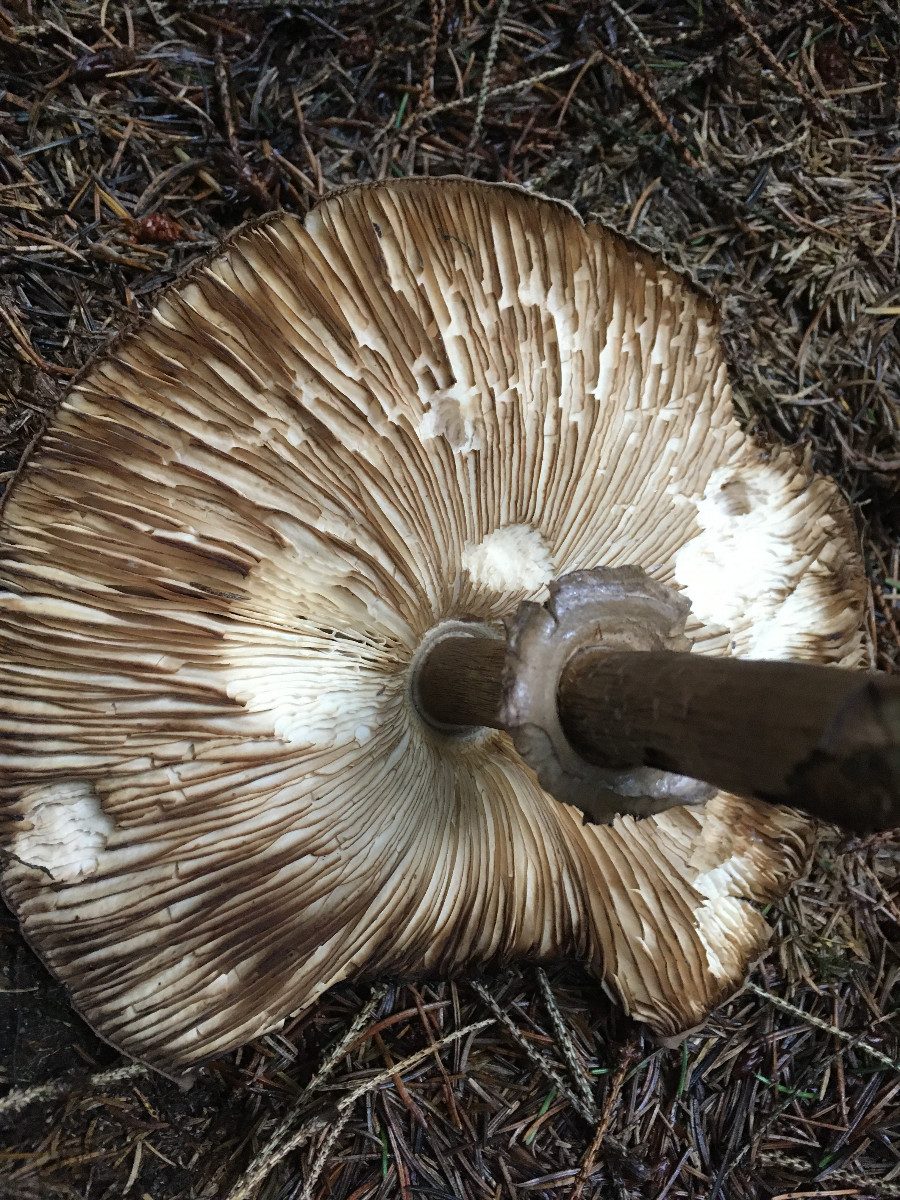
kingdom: Fungi
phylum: Basidiomycota
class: Agaricomycetes
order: Agaricales
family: Agaricaceae
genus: Chlorophyllum
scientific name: Chlorophyllum olivieri
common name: almindelig rabarberhat
